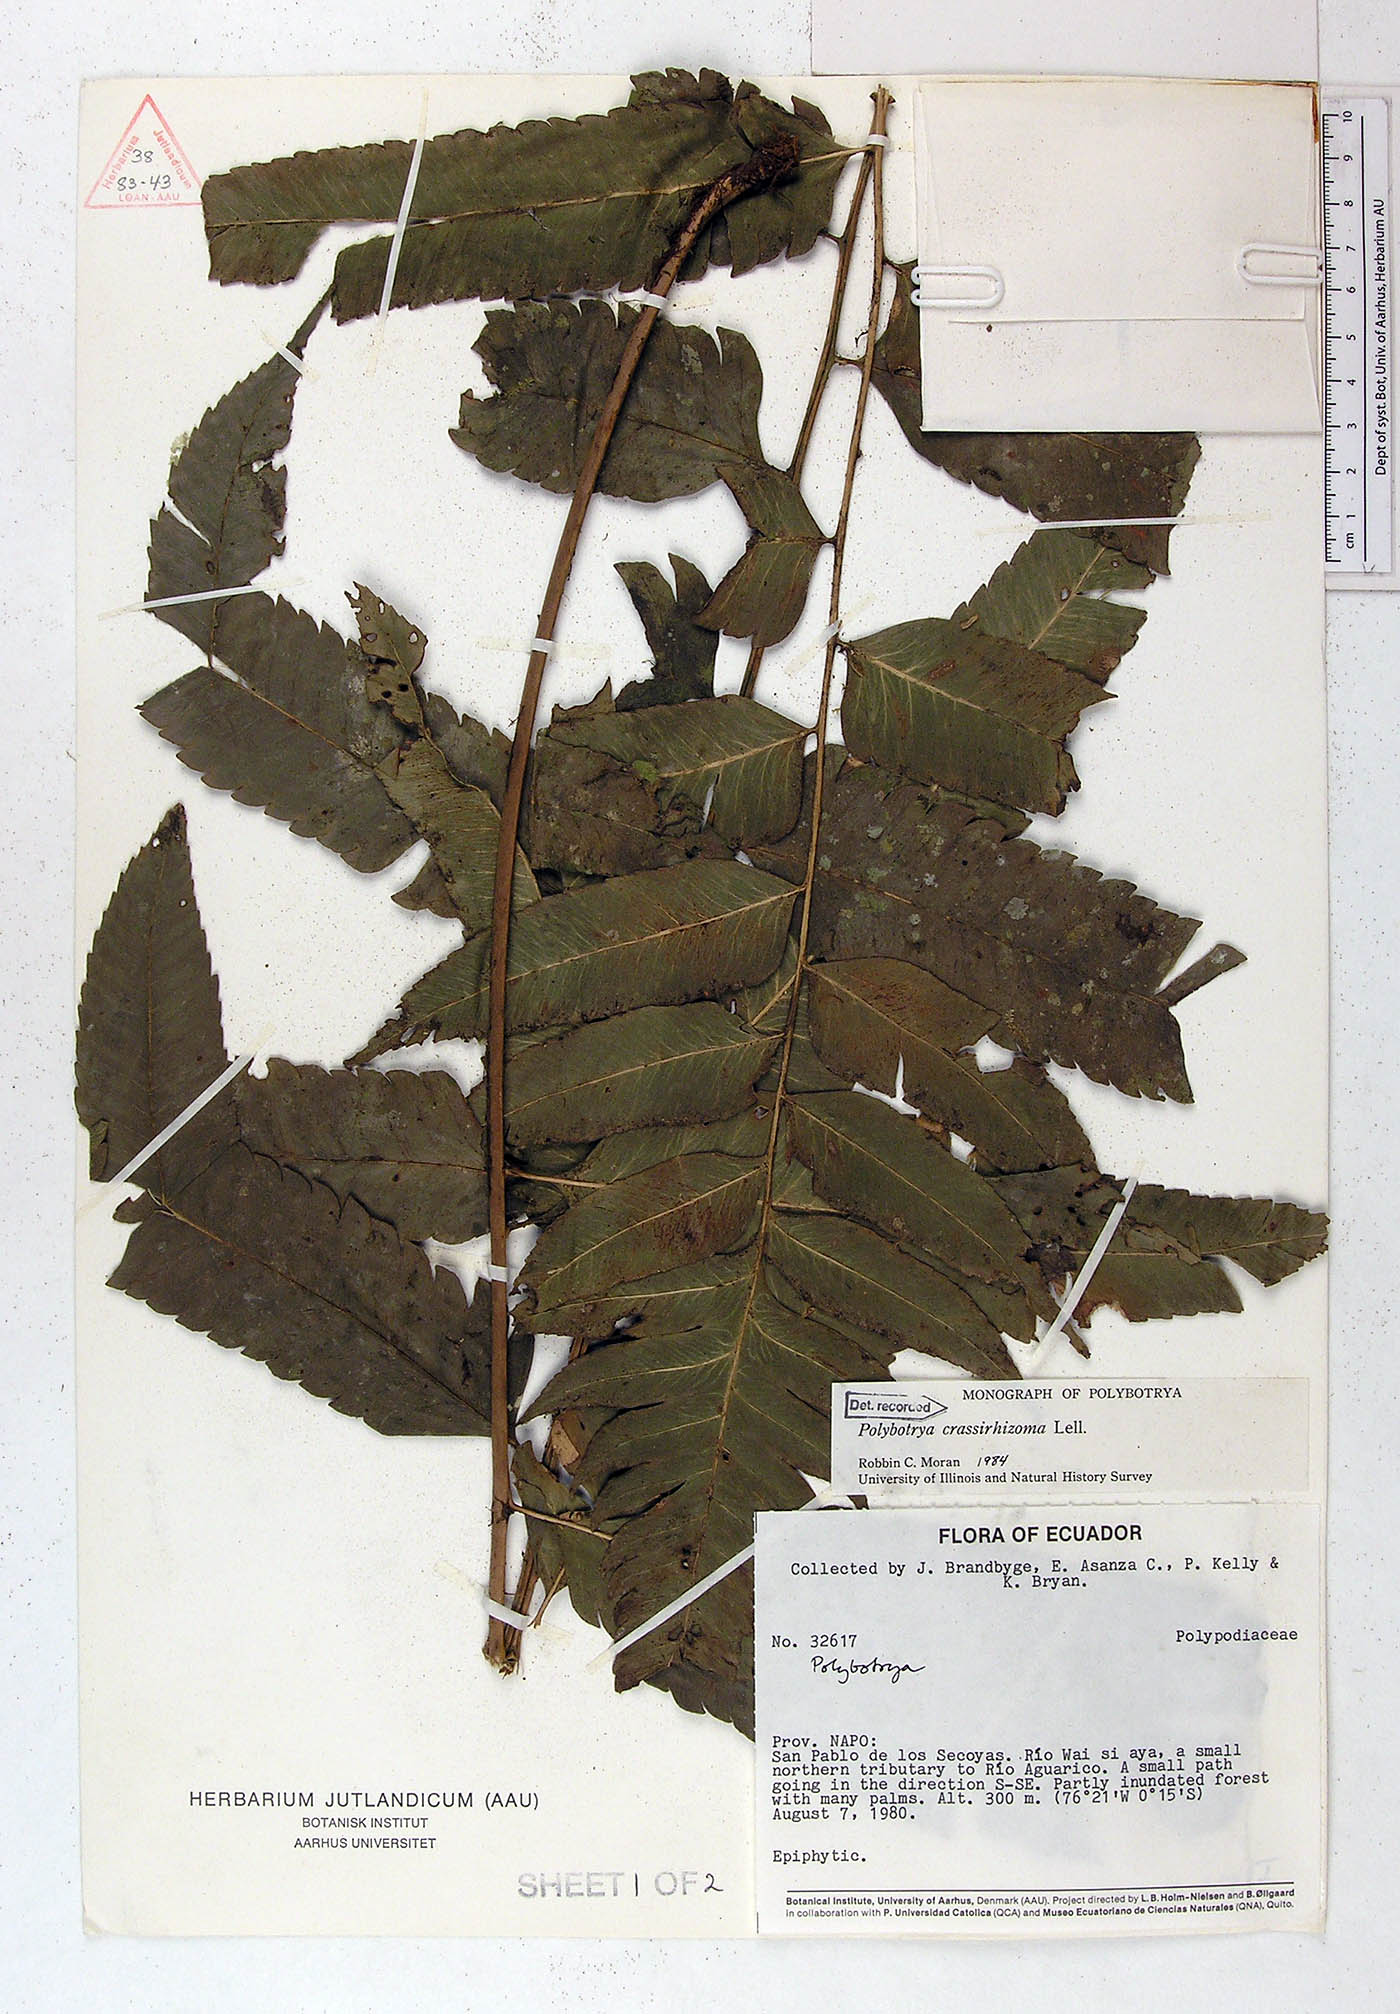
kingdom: Plantae
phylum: Tracheophyta
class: Polypodiopsida
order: Polypodiales
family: Dryopteridaceae
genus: Polybotrya
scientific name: Polybotrya crassirhizoma
